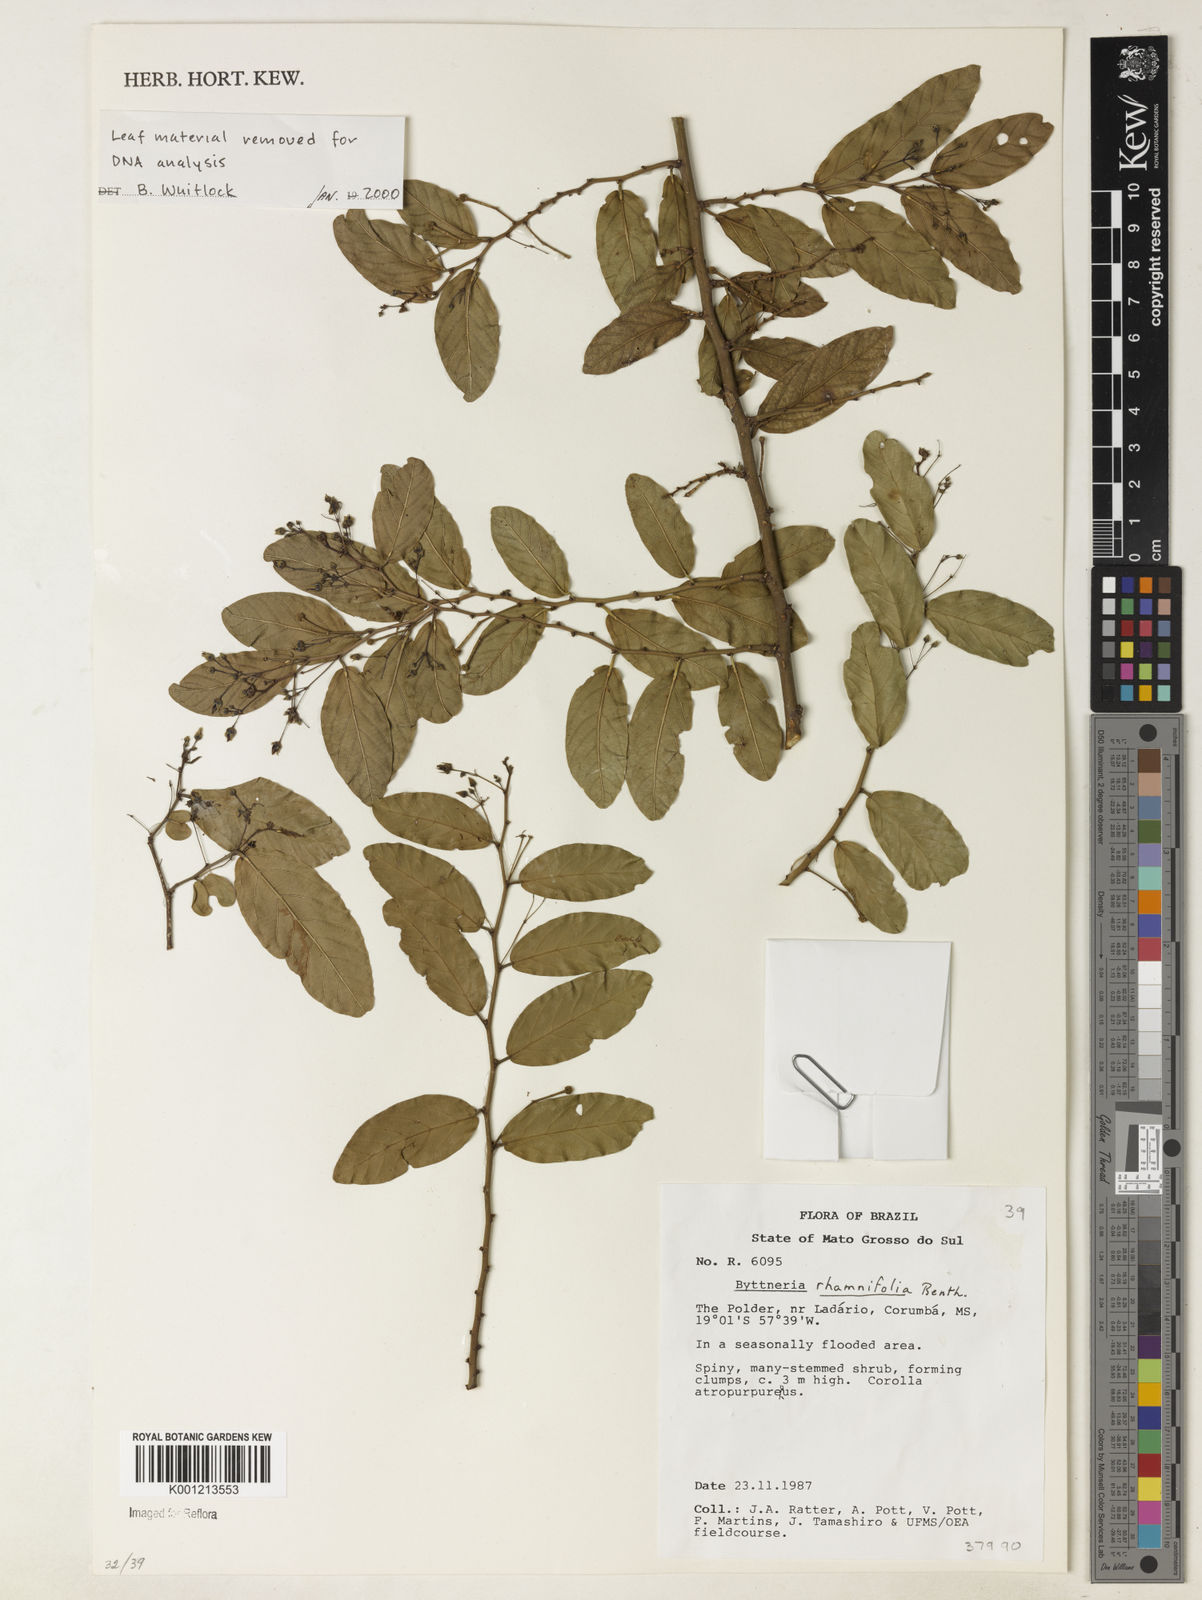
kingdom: Plantae
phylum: Tracheophyta
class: Magnoliopsida
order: Malvales
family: Malvaceae
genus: Byttneria
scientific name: Byttneria rhamnifolia
